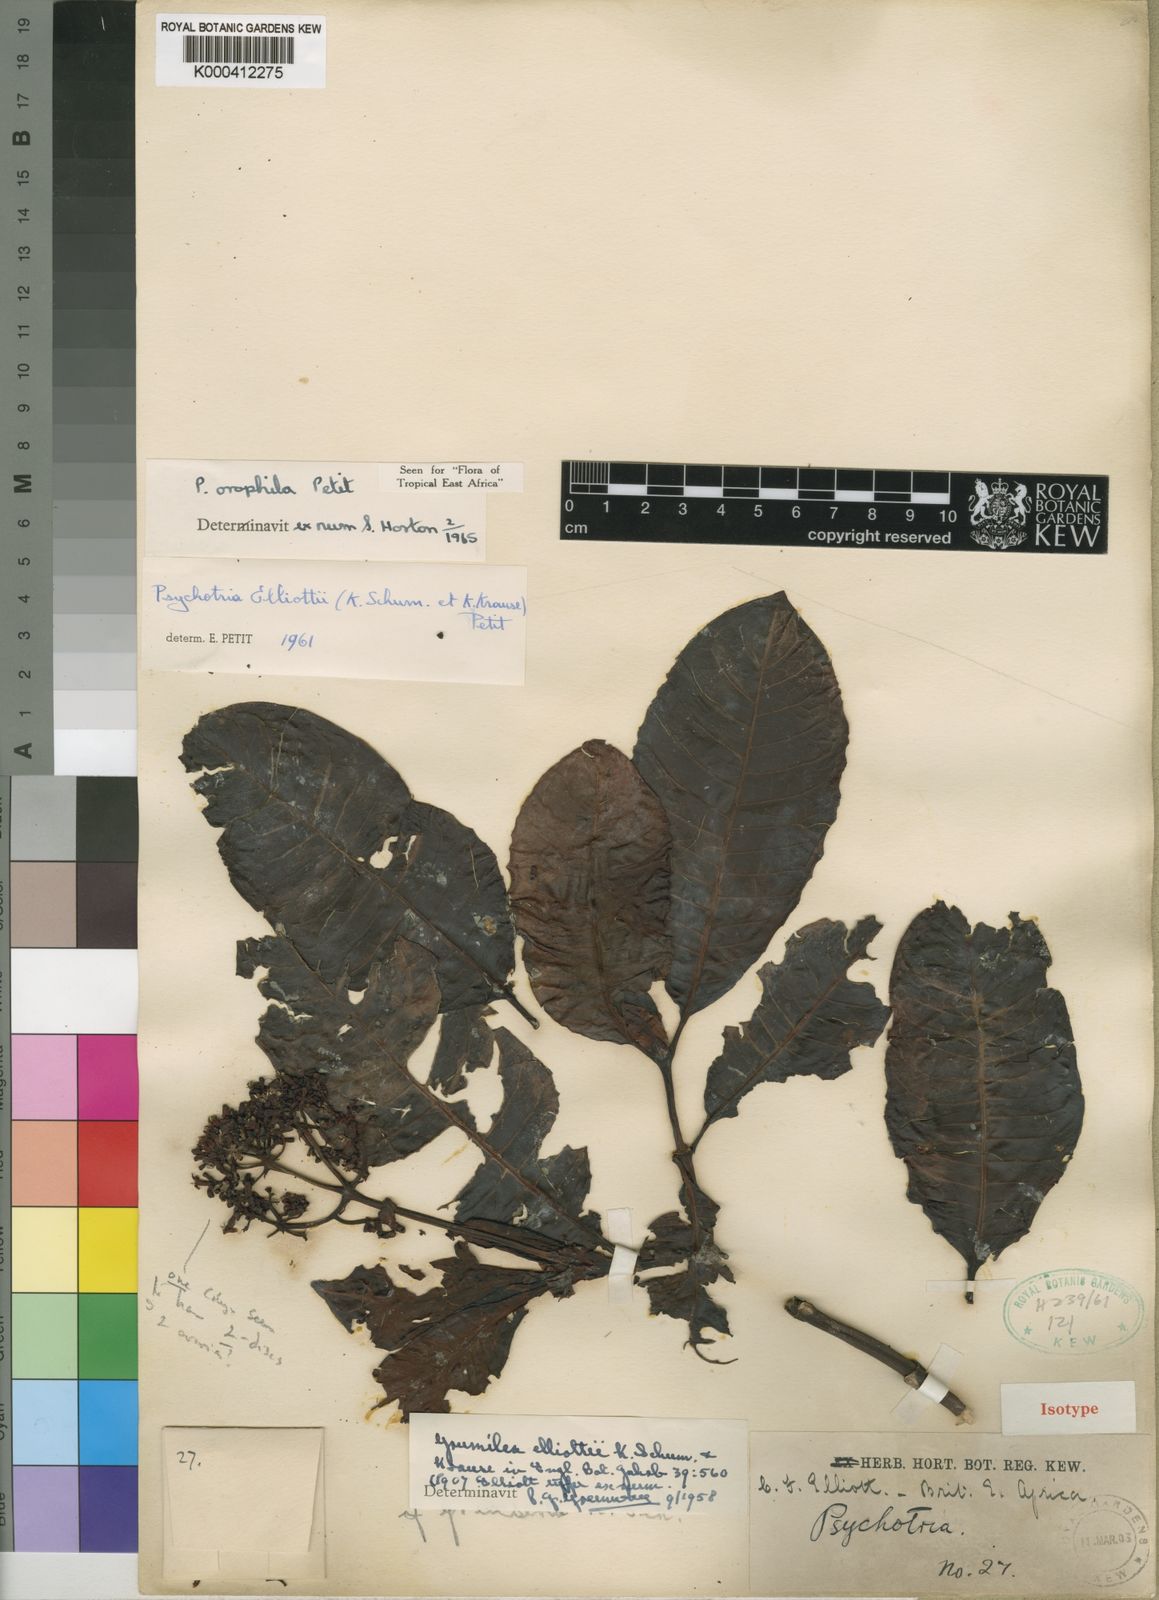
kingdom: Plantae
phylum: Tracheophyta
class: Magnoliopsida
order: Gentianales
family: Rubiaceae
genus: Psychotria
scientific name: Psychotria orophila
